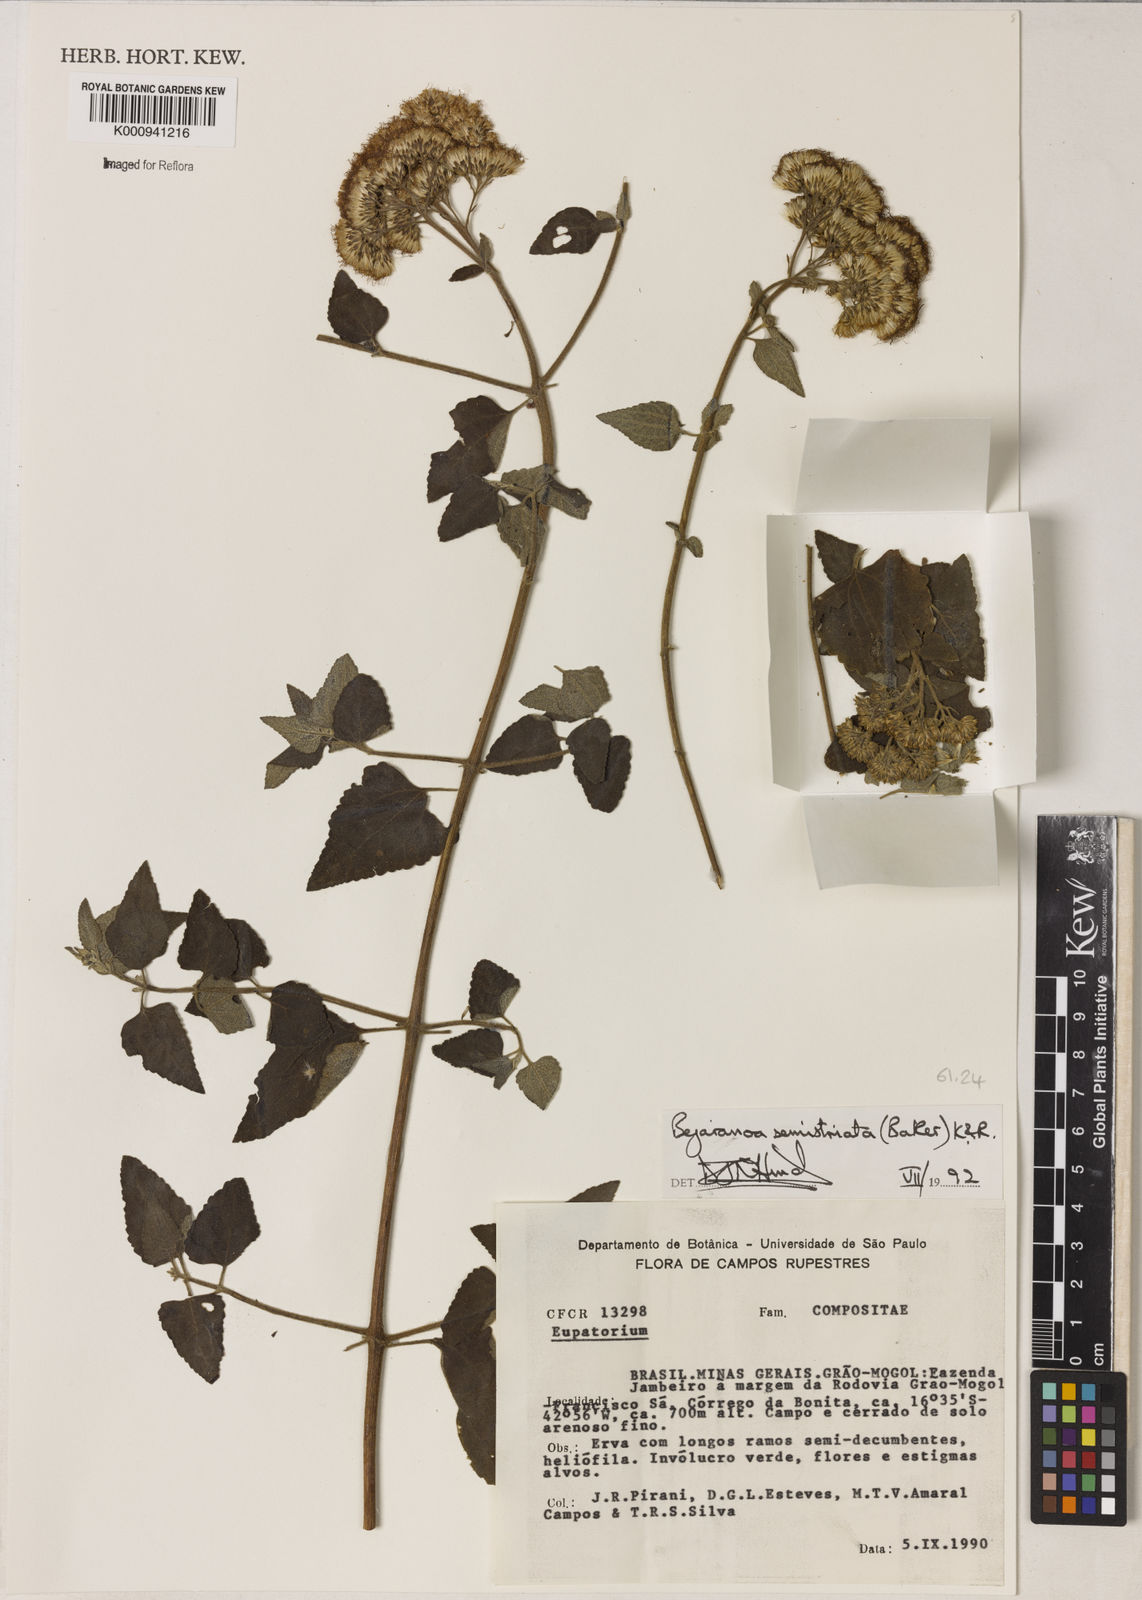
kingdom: Plantae
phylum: Tracheophyta
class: Magnoliopsida
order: Asterales
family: Asteraceae
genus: Bejaranoa
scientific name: Bejaranoa semistriata
